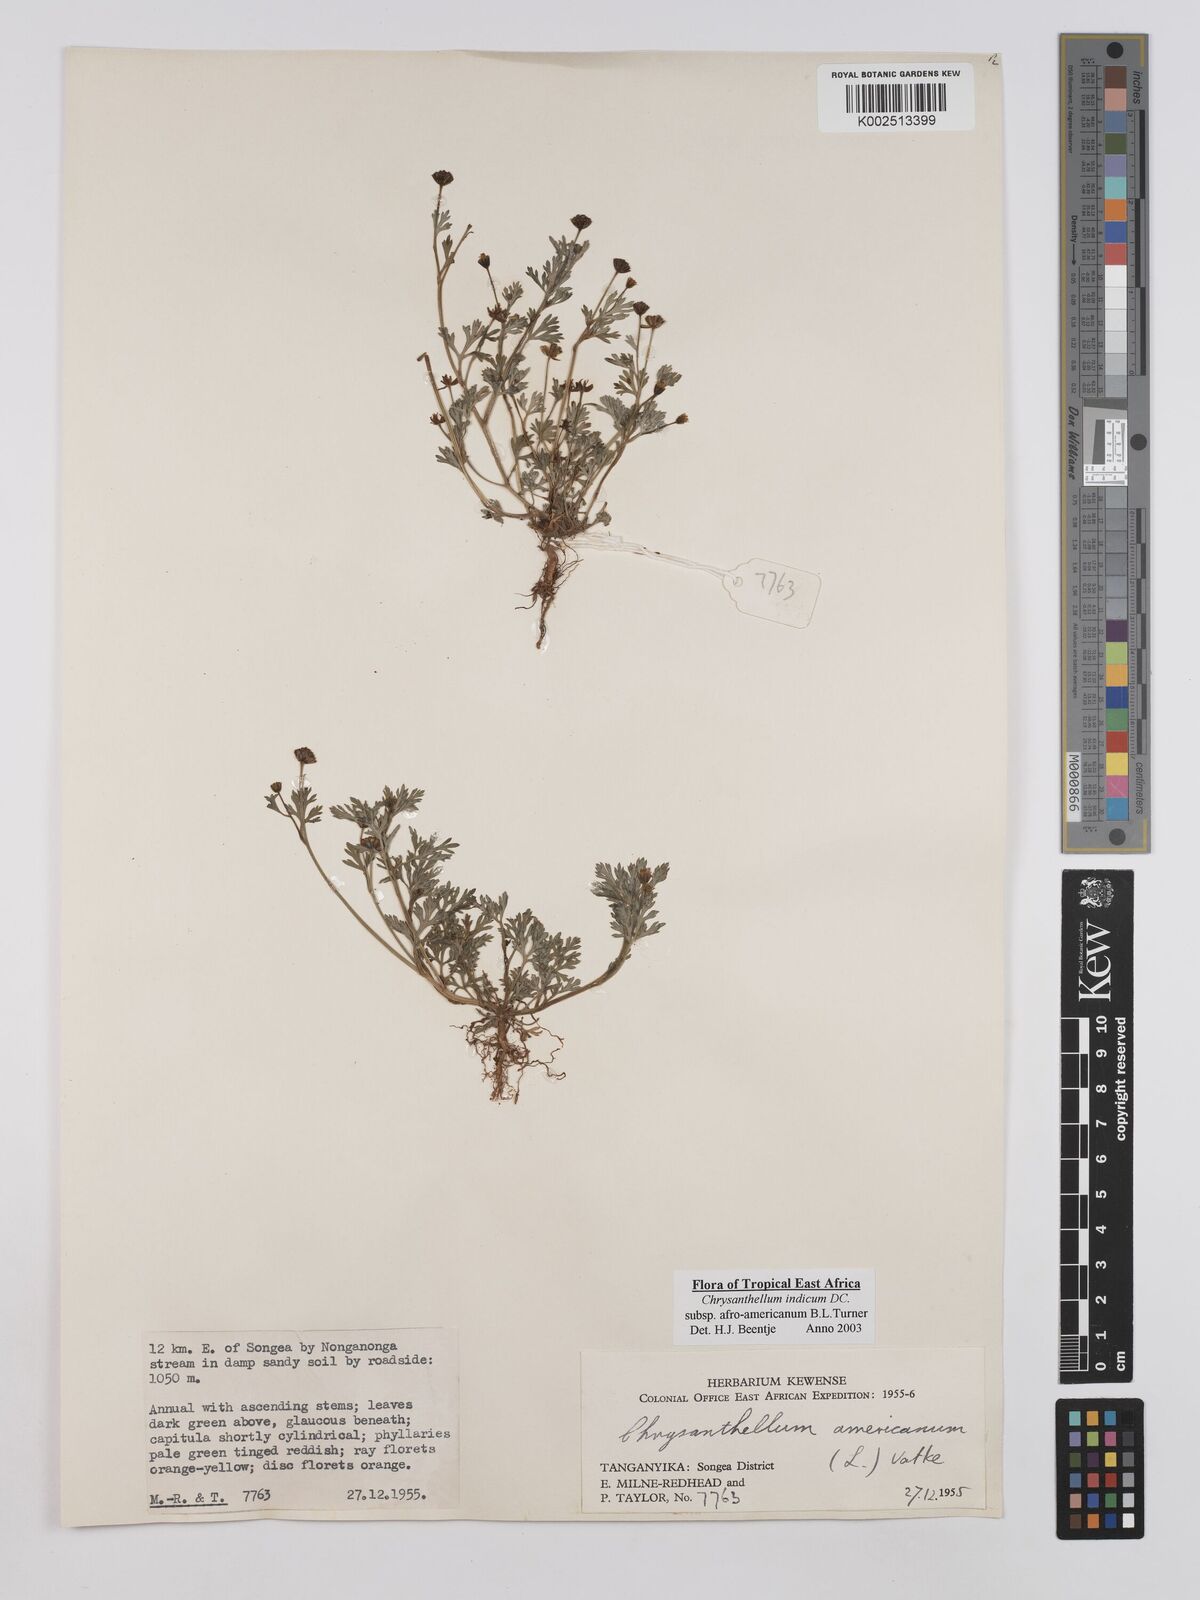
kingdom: Plantae
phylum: Tracheophyta
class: Magnoliopsida
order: Asterales
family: Asteraceae
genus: Chrysanthellum
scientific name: Chrysanthellum indicum
